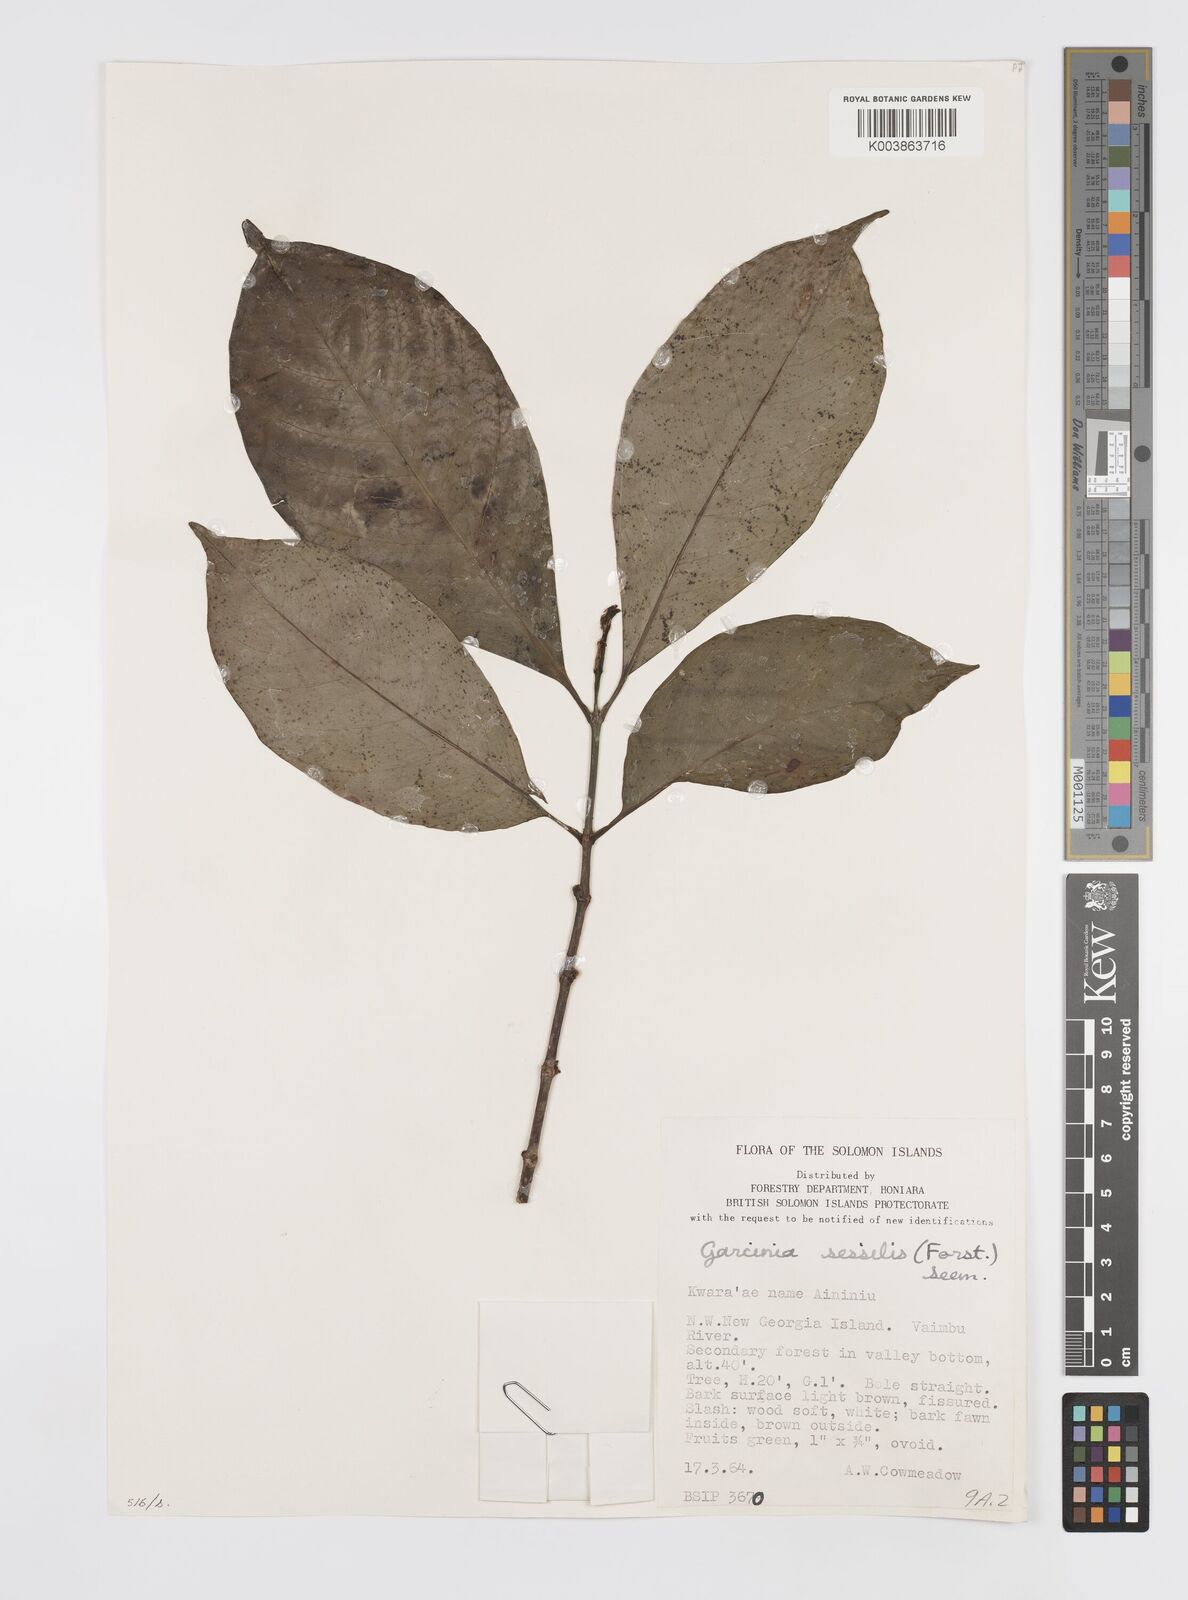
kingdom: Plantae
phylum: Tracheophyta
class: Magnoliopsida
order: Malpighiales
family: Clusiaceae
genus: Garcinia
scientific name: Garcinia sessilis
